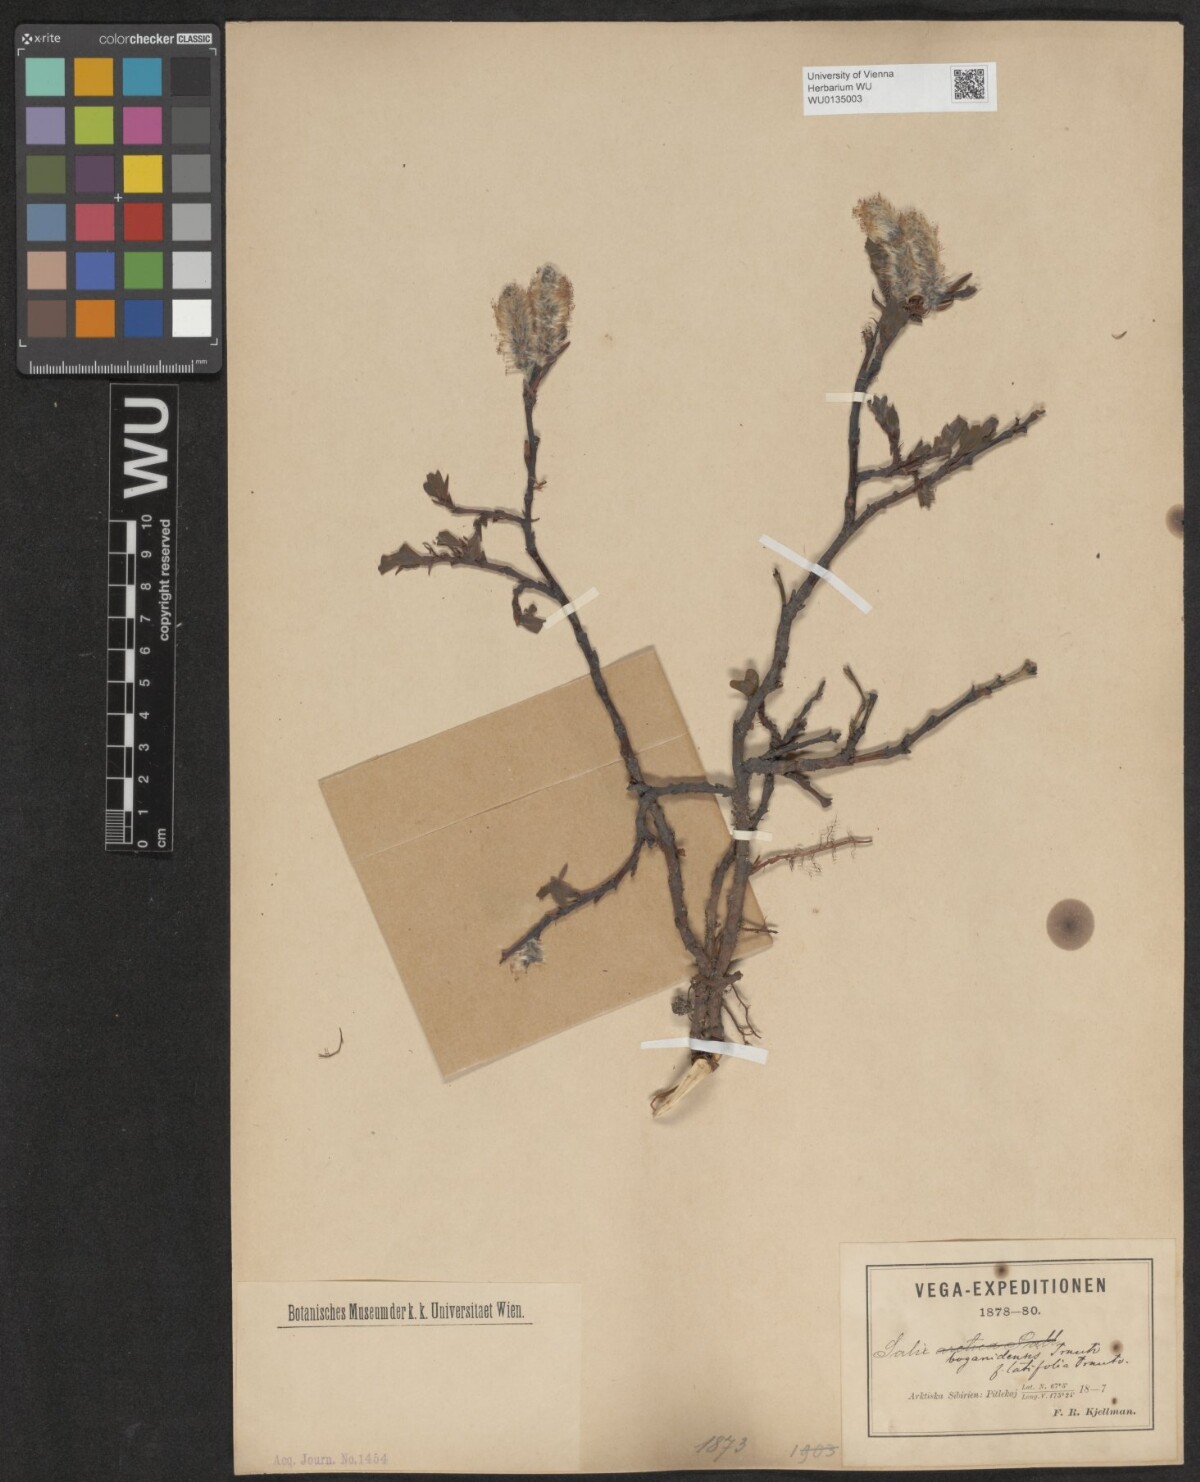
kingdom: Plantae
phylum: Tracheophyta
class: Magnoliopsida
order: Malpighiales
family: Salicaceae
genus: Salix
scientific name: Salix boganidensis
